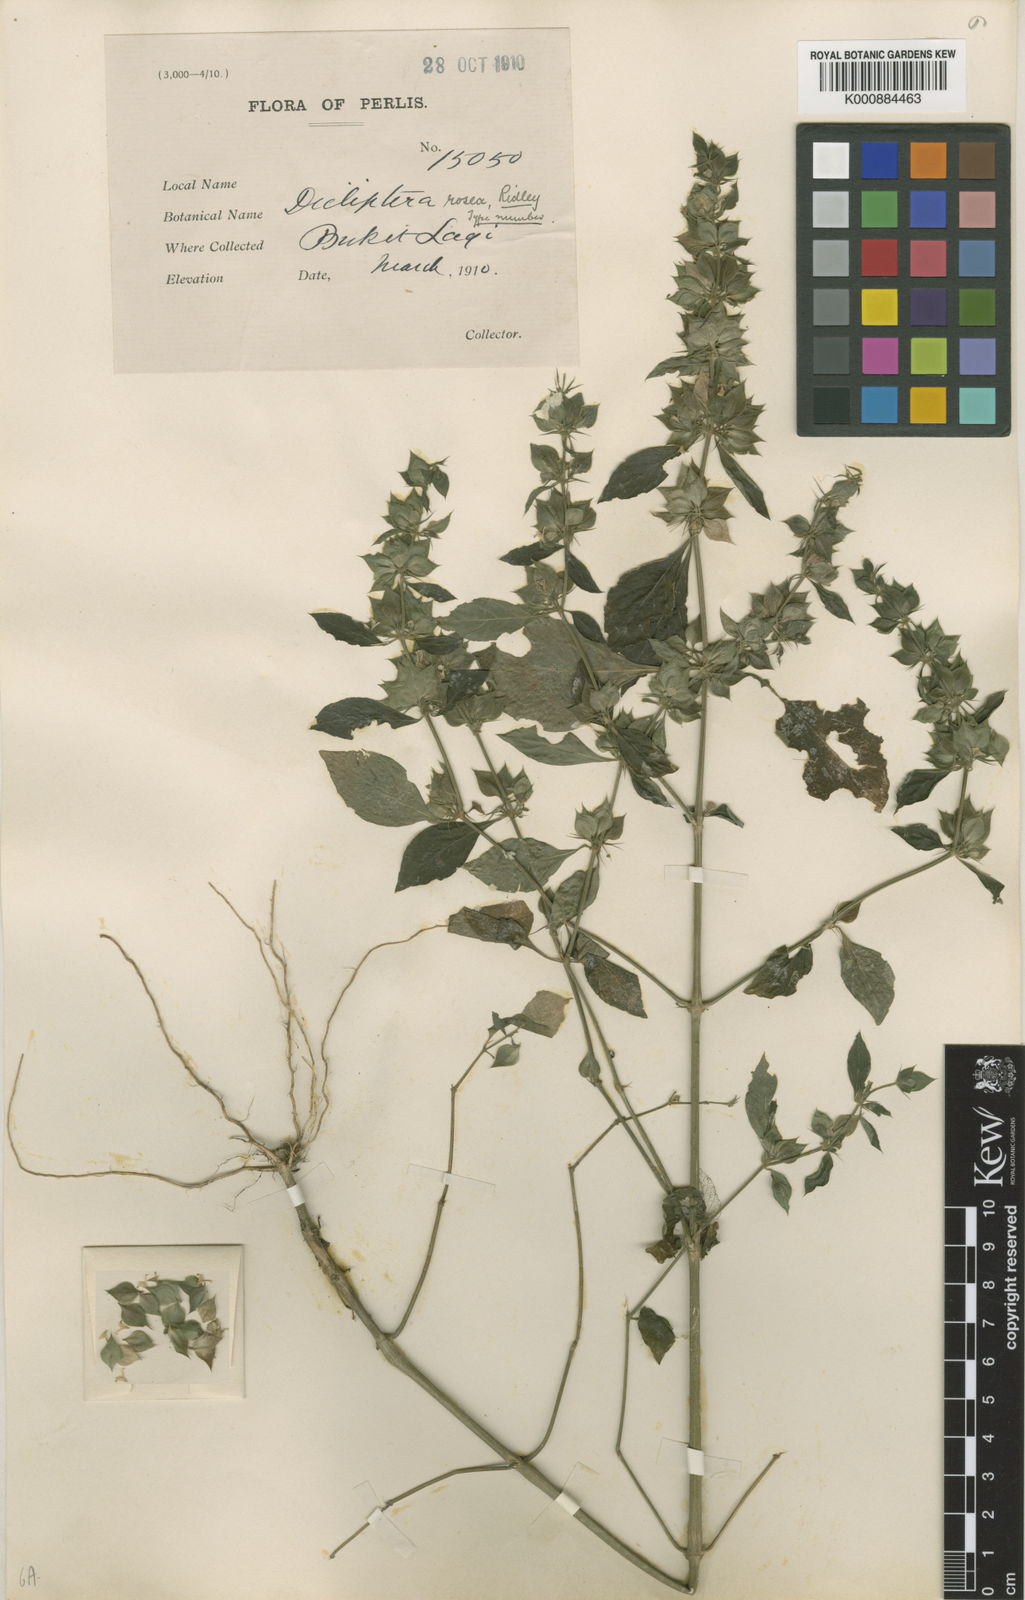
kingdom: Plantae
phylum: Tracheophyta
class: Magnoliopsida
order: Lamiales
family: Acanthaceae
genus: Dicliptera
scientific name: Dicliptera rosea
